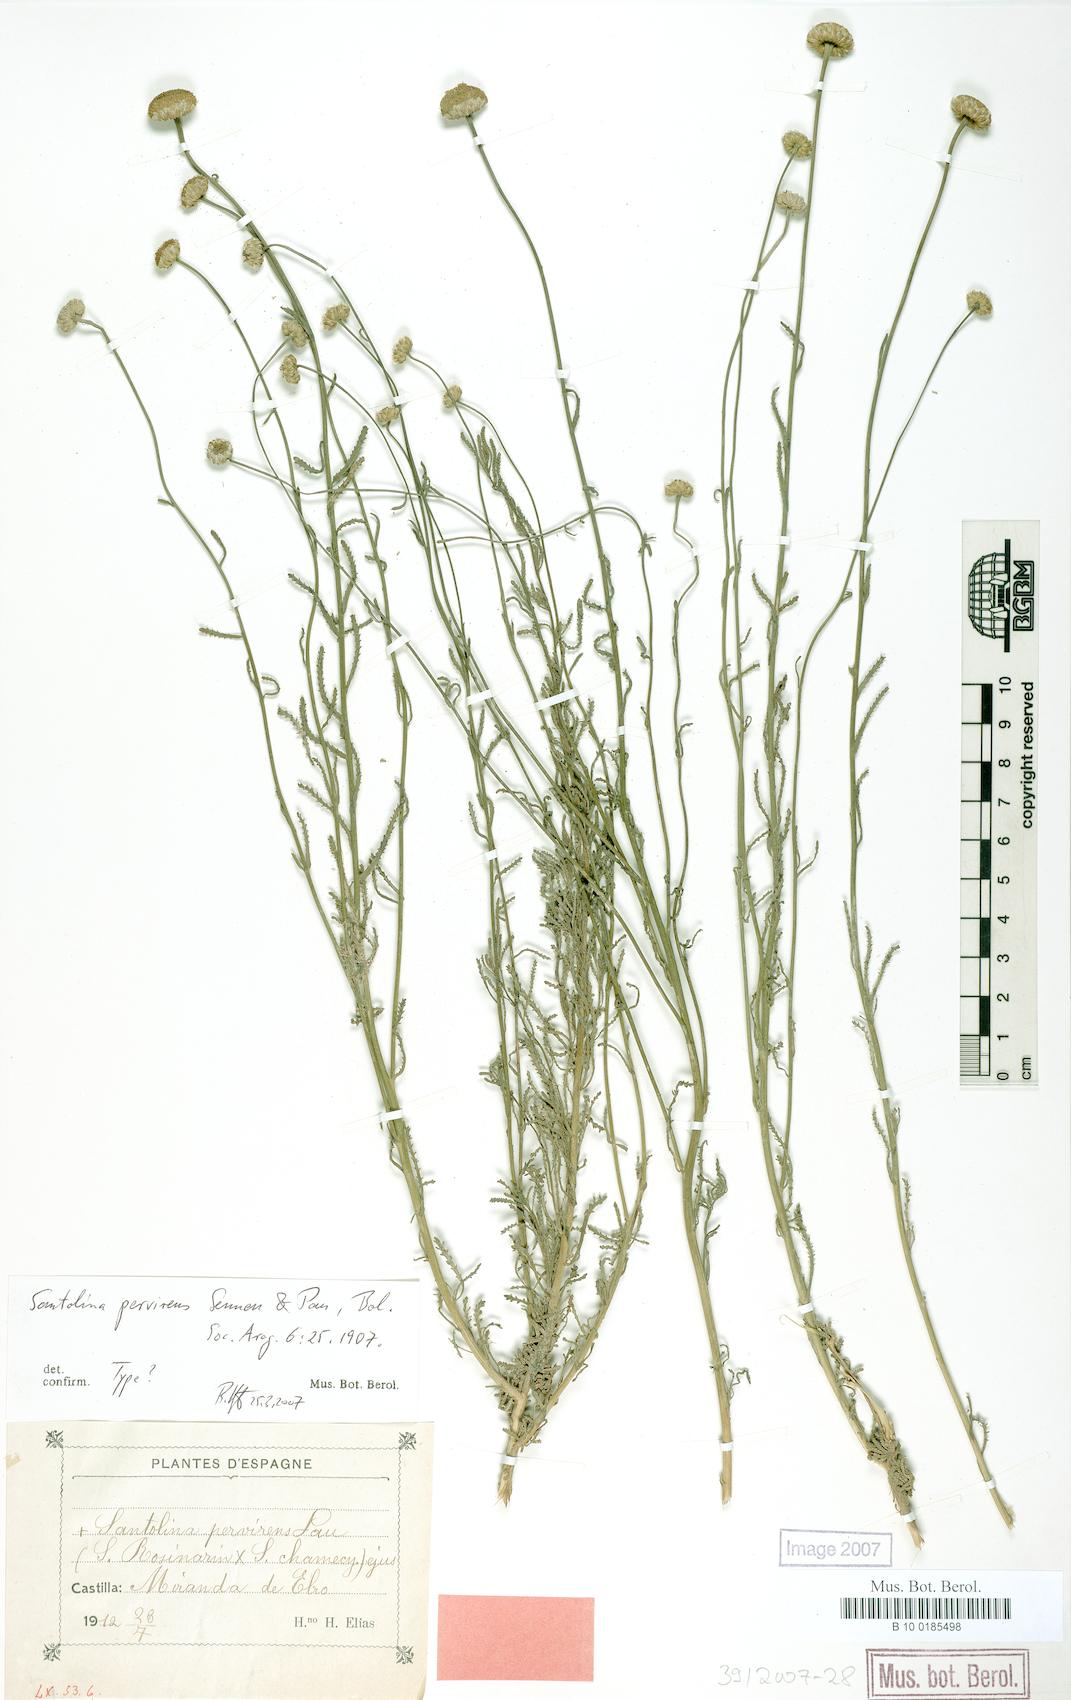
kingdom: Plantae
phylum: Tracheophyta
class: Magnoliopsida
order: Asterales
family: Asteraceae
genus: Santolina
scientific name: Santolina virens
